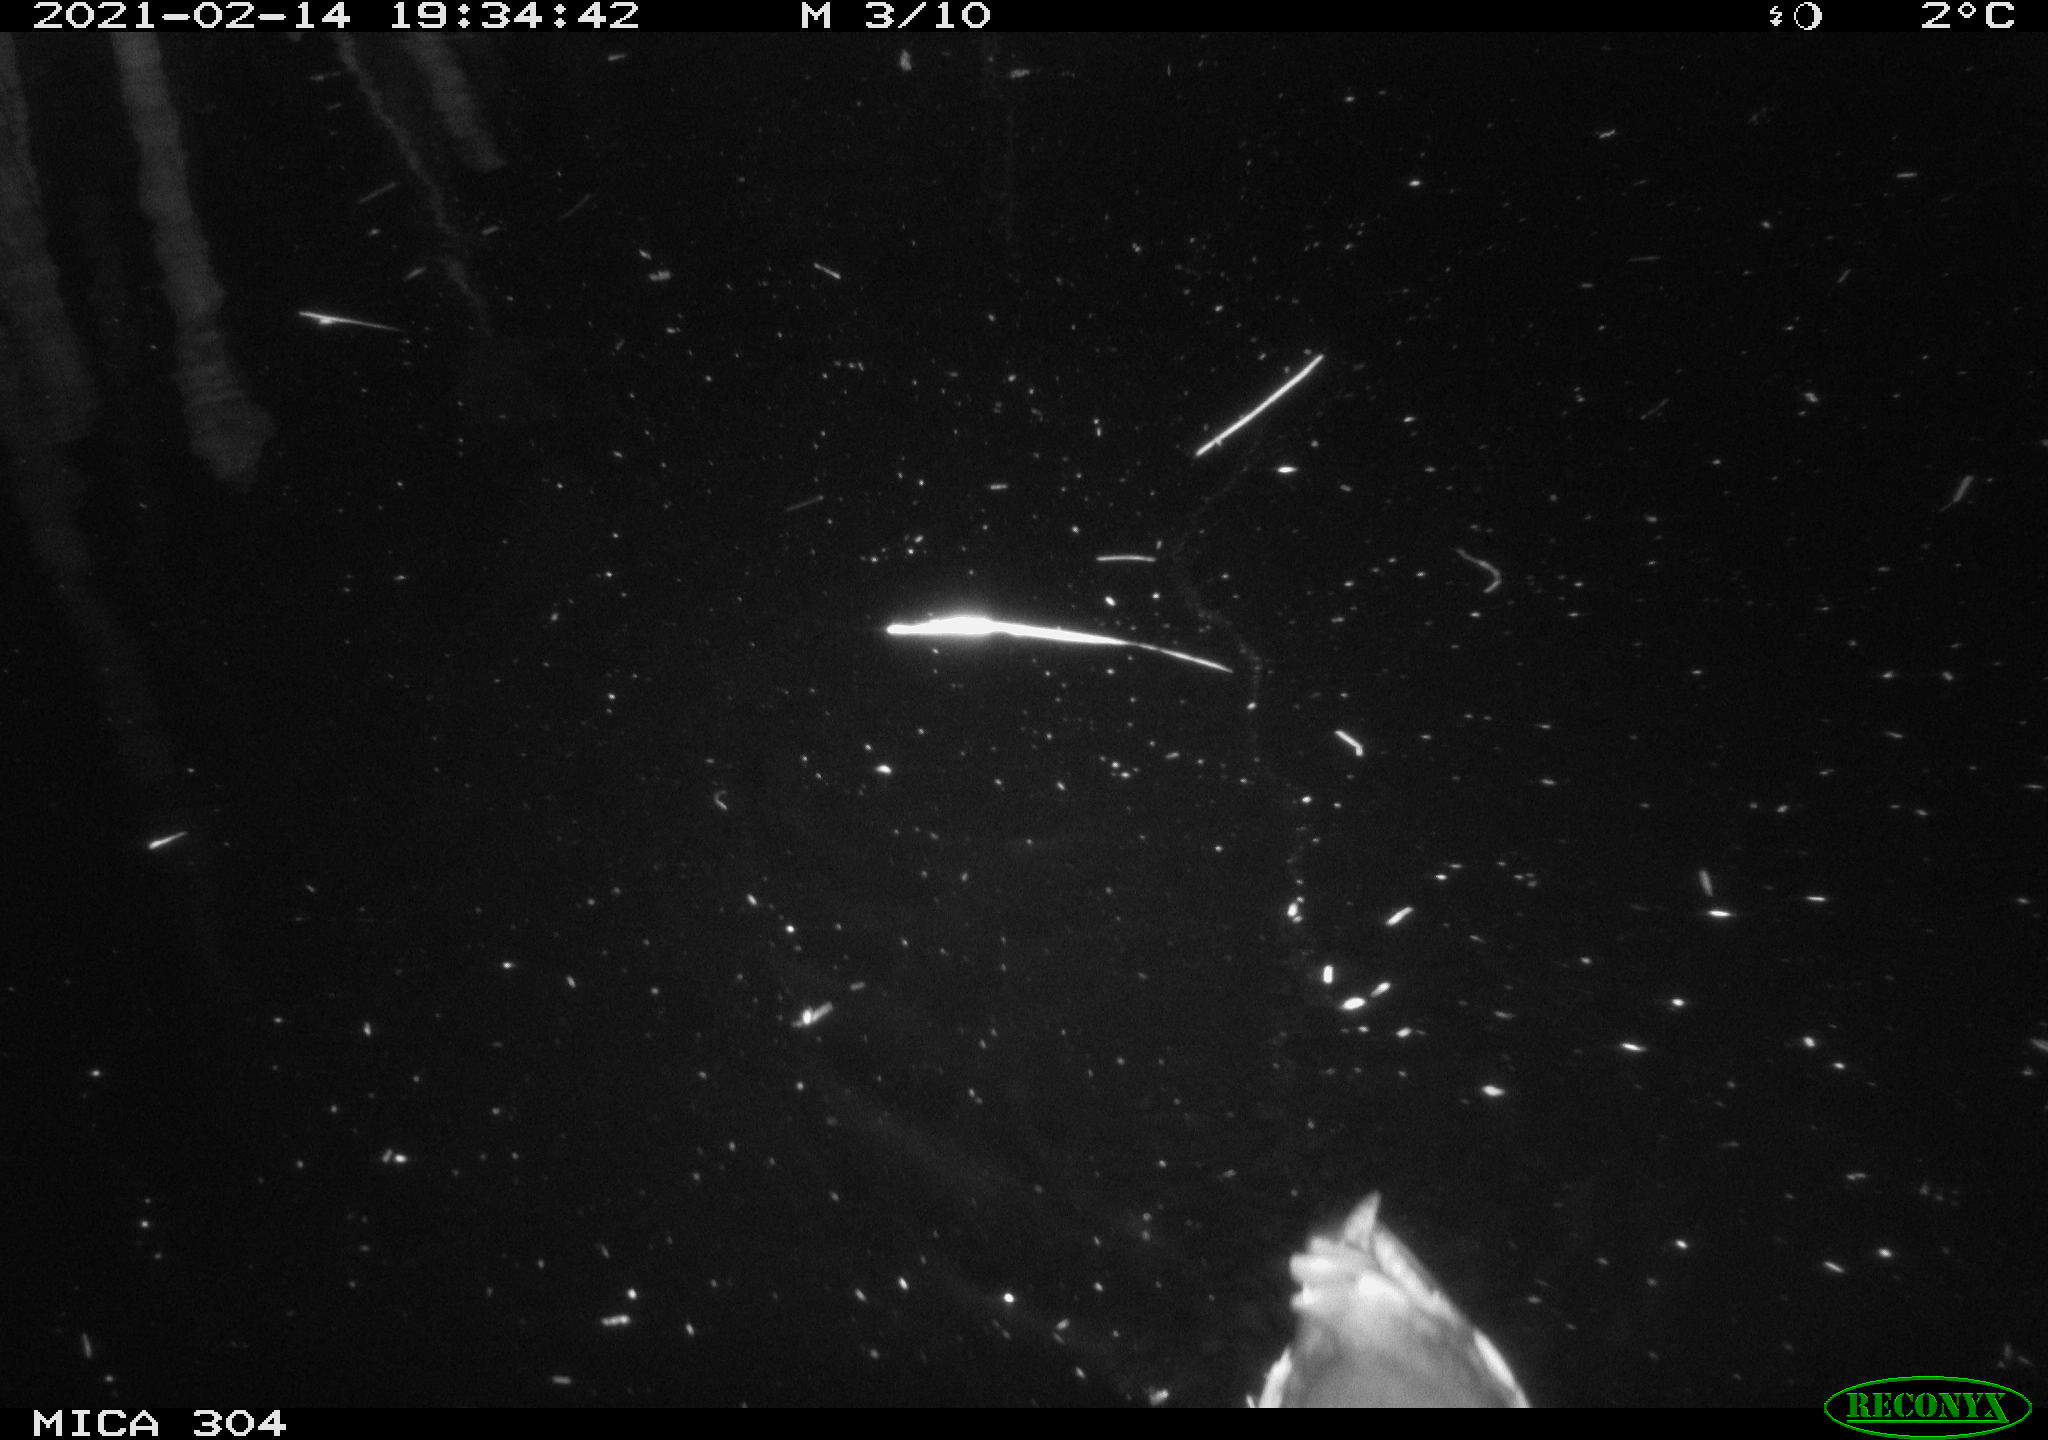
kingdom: Animalia
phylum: Chordata
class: Aves
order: Gruiformes
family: Rallidae
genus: Gallinula
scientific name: Gallinula chloropus
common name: Common moorhen
